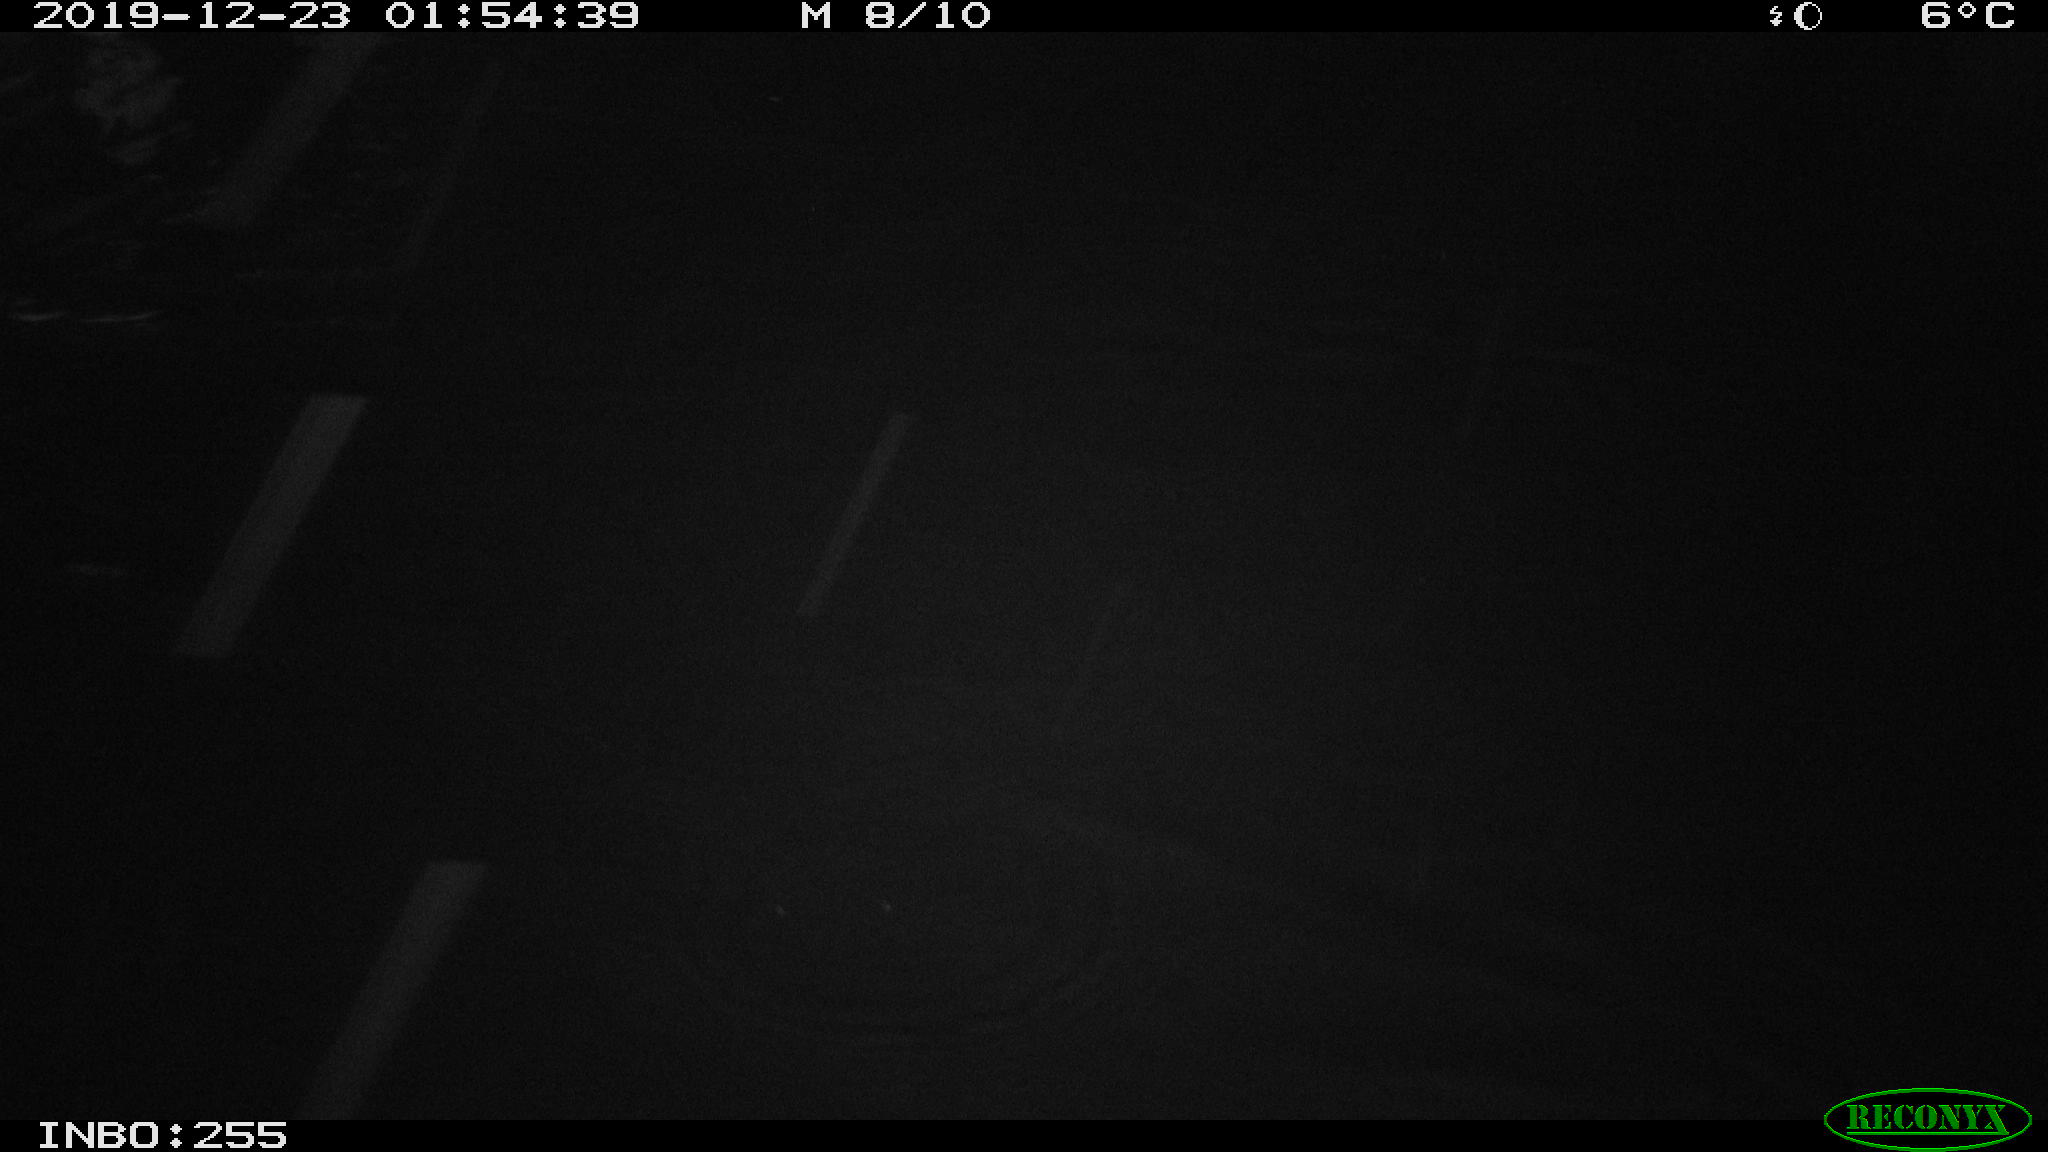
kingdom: Animalia
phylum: Chordata
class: Aves
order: Gruiformes
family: Rallidae
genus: Gallinula
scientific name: Gallinula chloropus
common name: Common moorhen
